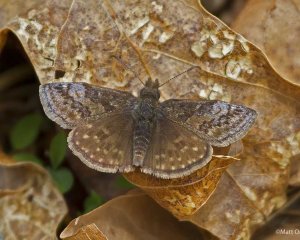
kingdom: Animalia
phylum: Arthropoda
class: Insecta
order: Lepidoptera
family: Hesperiidae
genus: Erynnis
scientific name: Erynnis icelus
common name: Dreamy Duskywing
